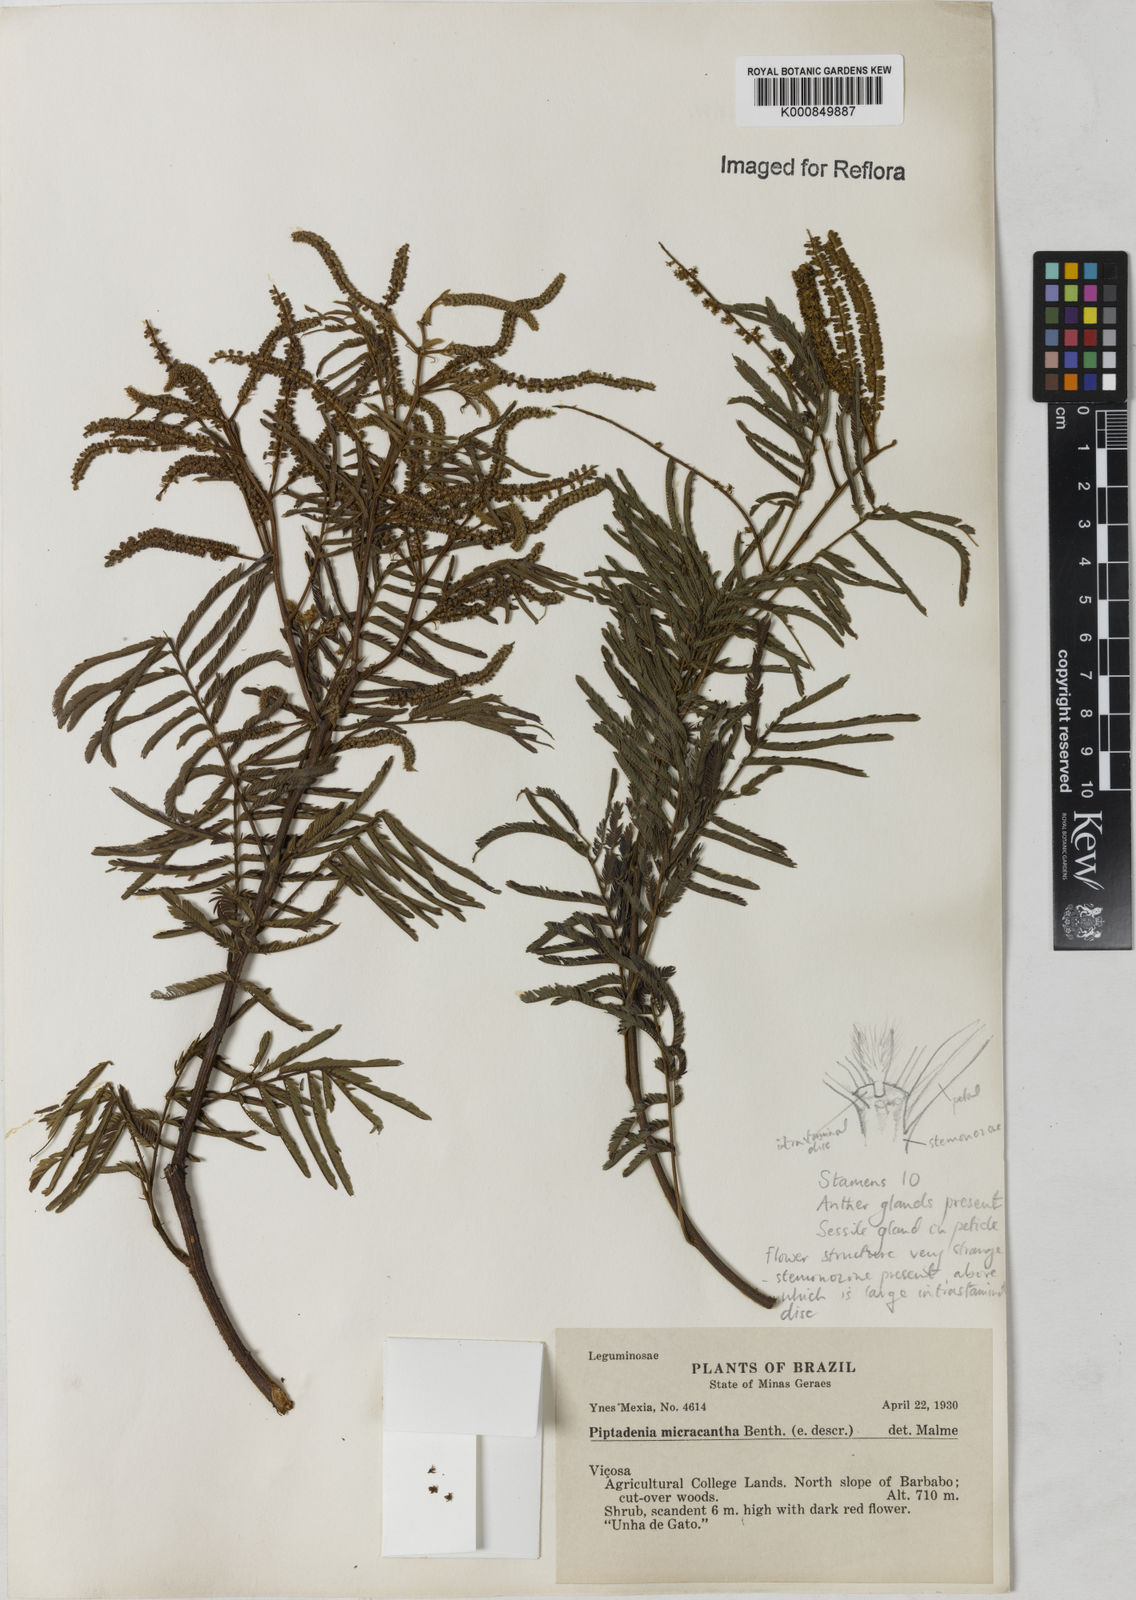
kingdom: Plantae
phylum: Tracheophyta
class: Magnoliopsida
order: Fabales
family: Fabaceae
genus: Piptadenia
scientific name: Piptadenia micracantha
